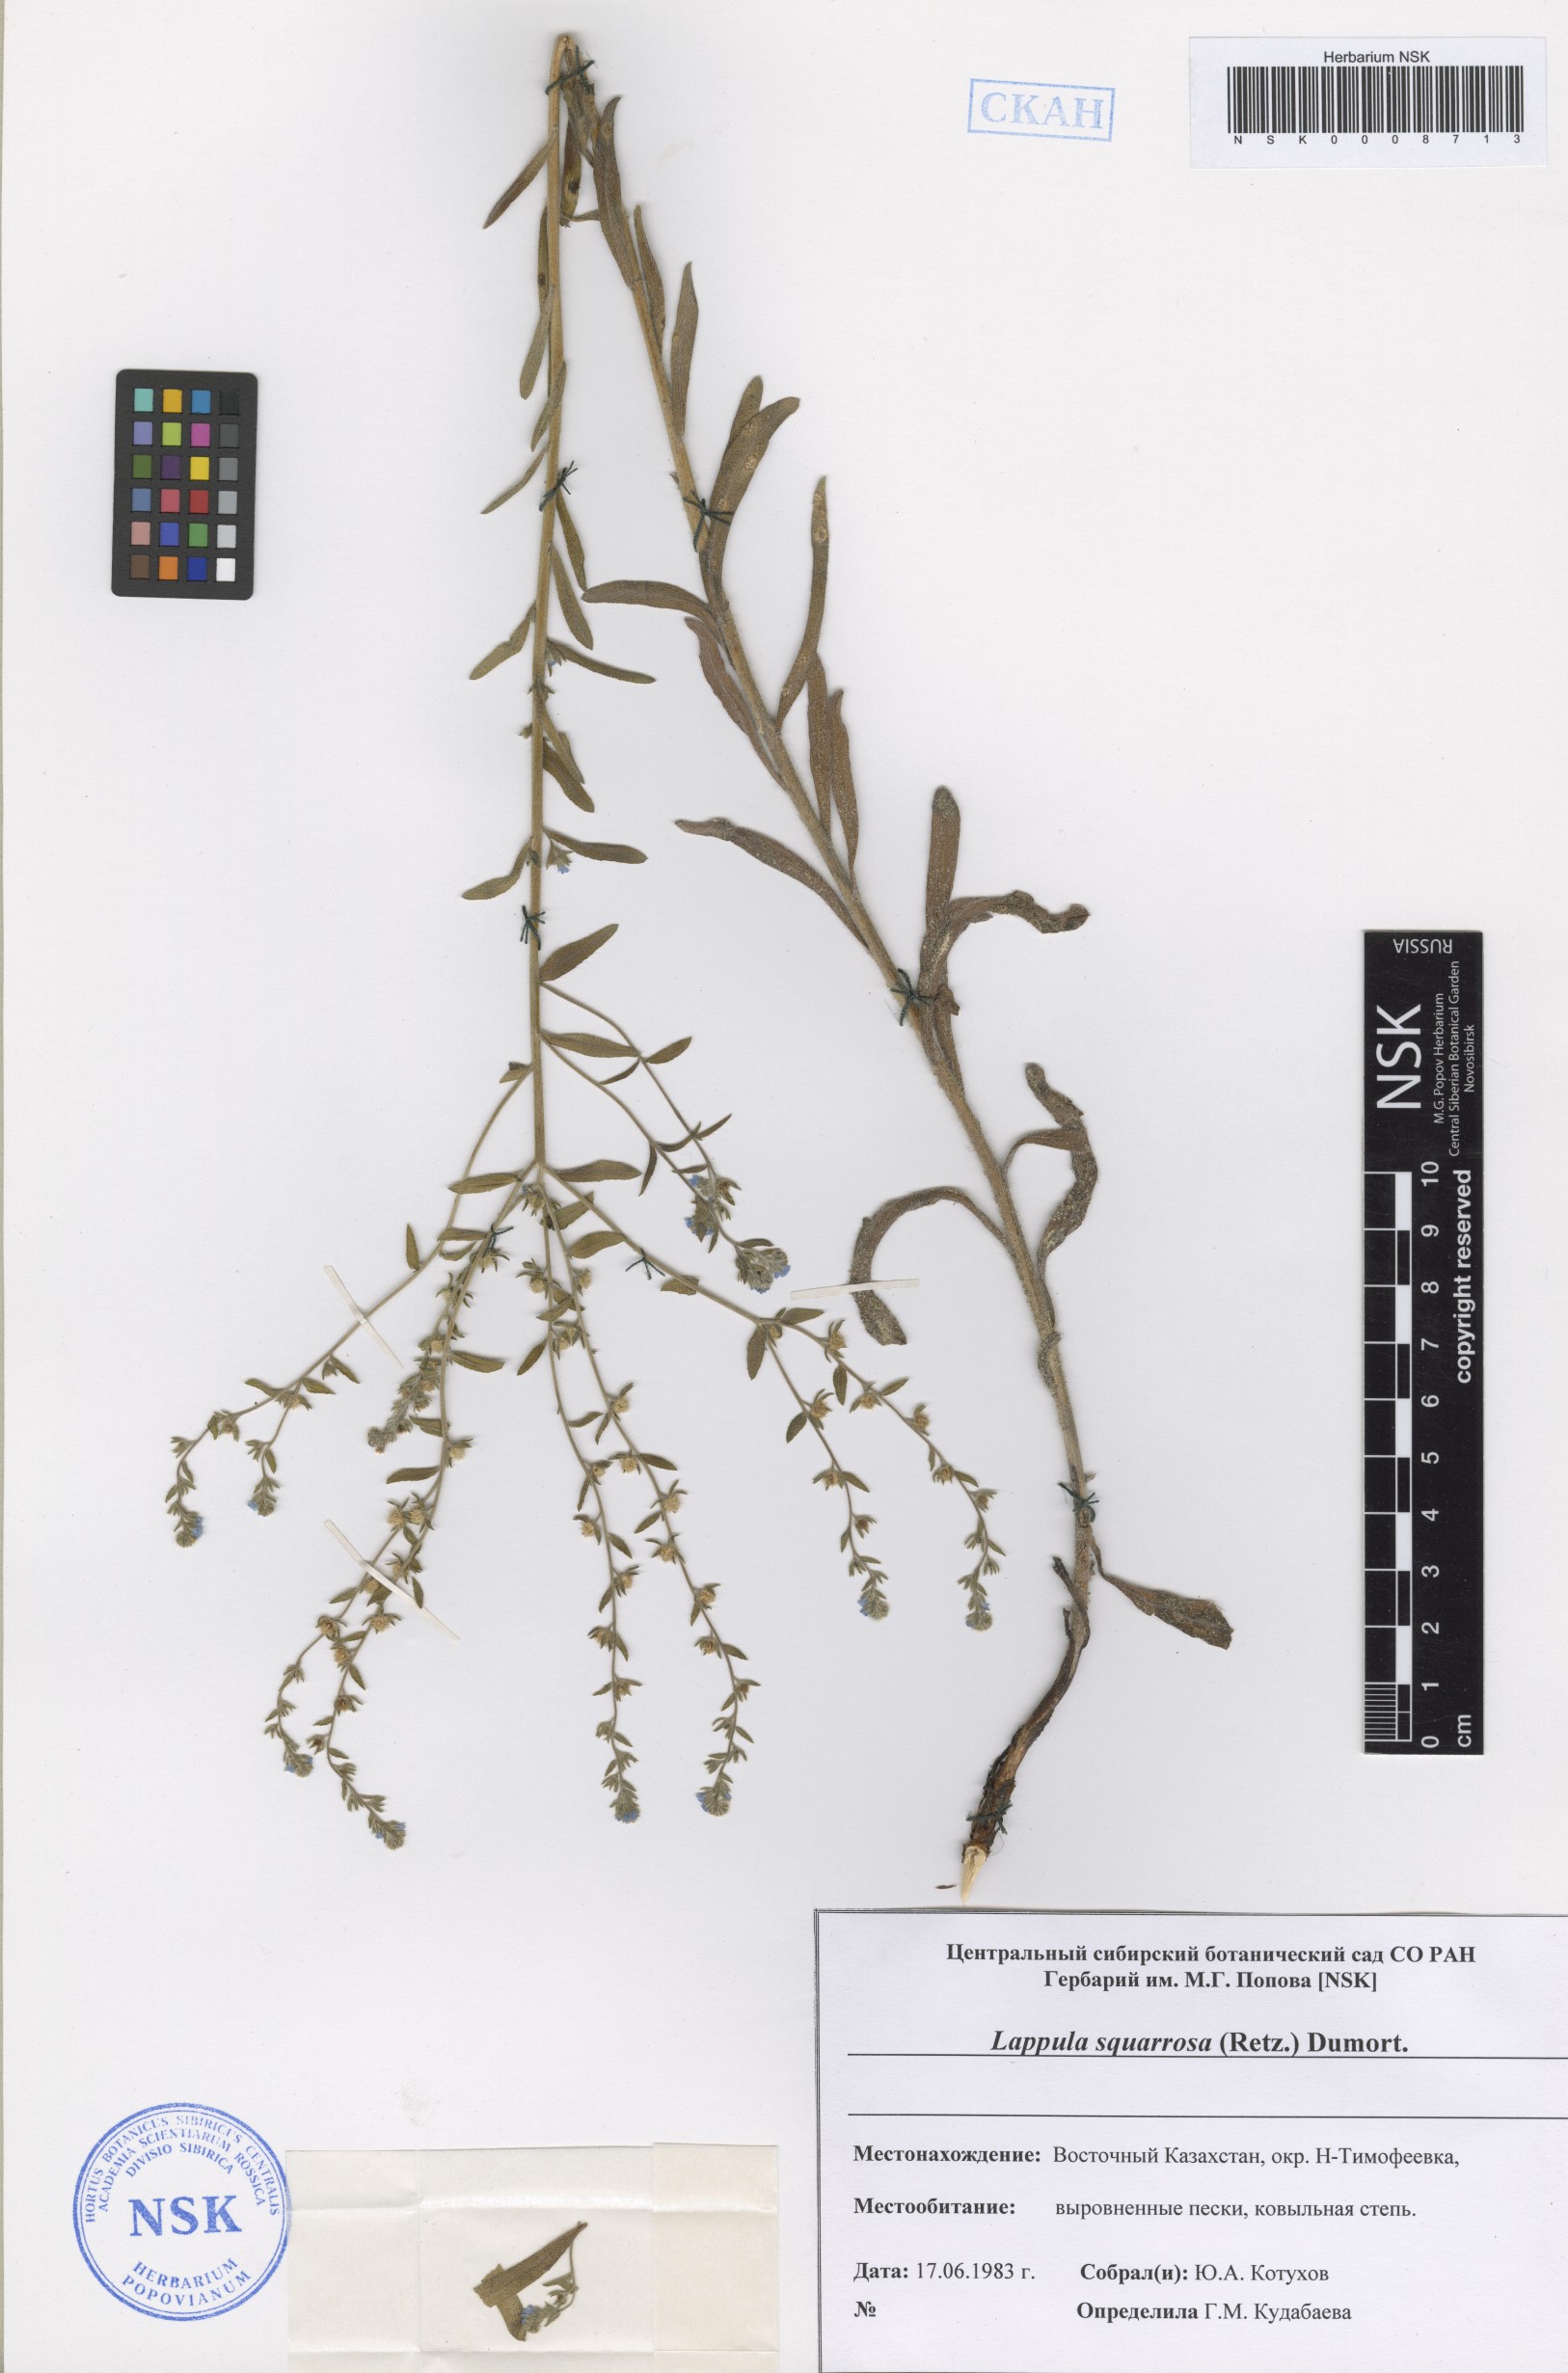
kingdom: Plantae
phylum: Tracheophyta
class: Magnoliopsida
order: Boraginales
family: Boraginaceae
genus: Lappula
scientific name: Lappula squarrosa
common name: European stickseed
